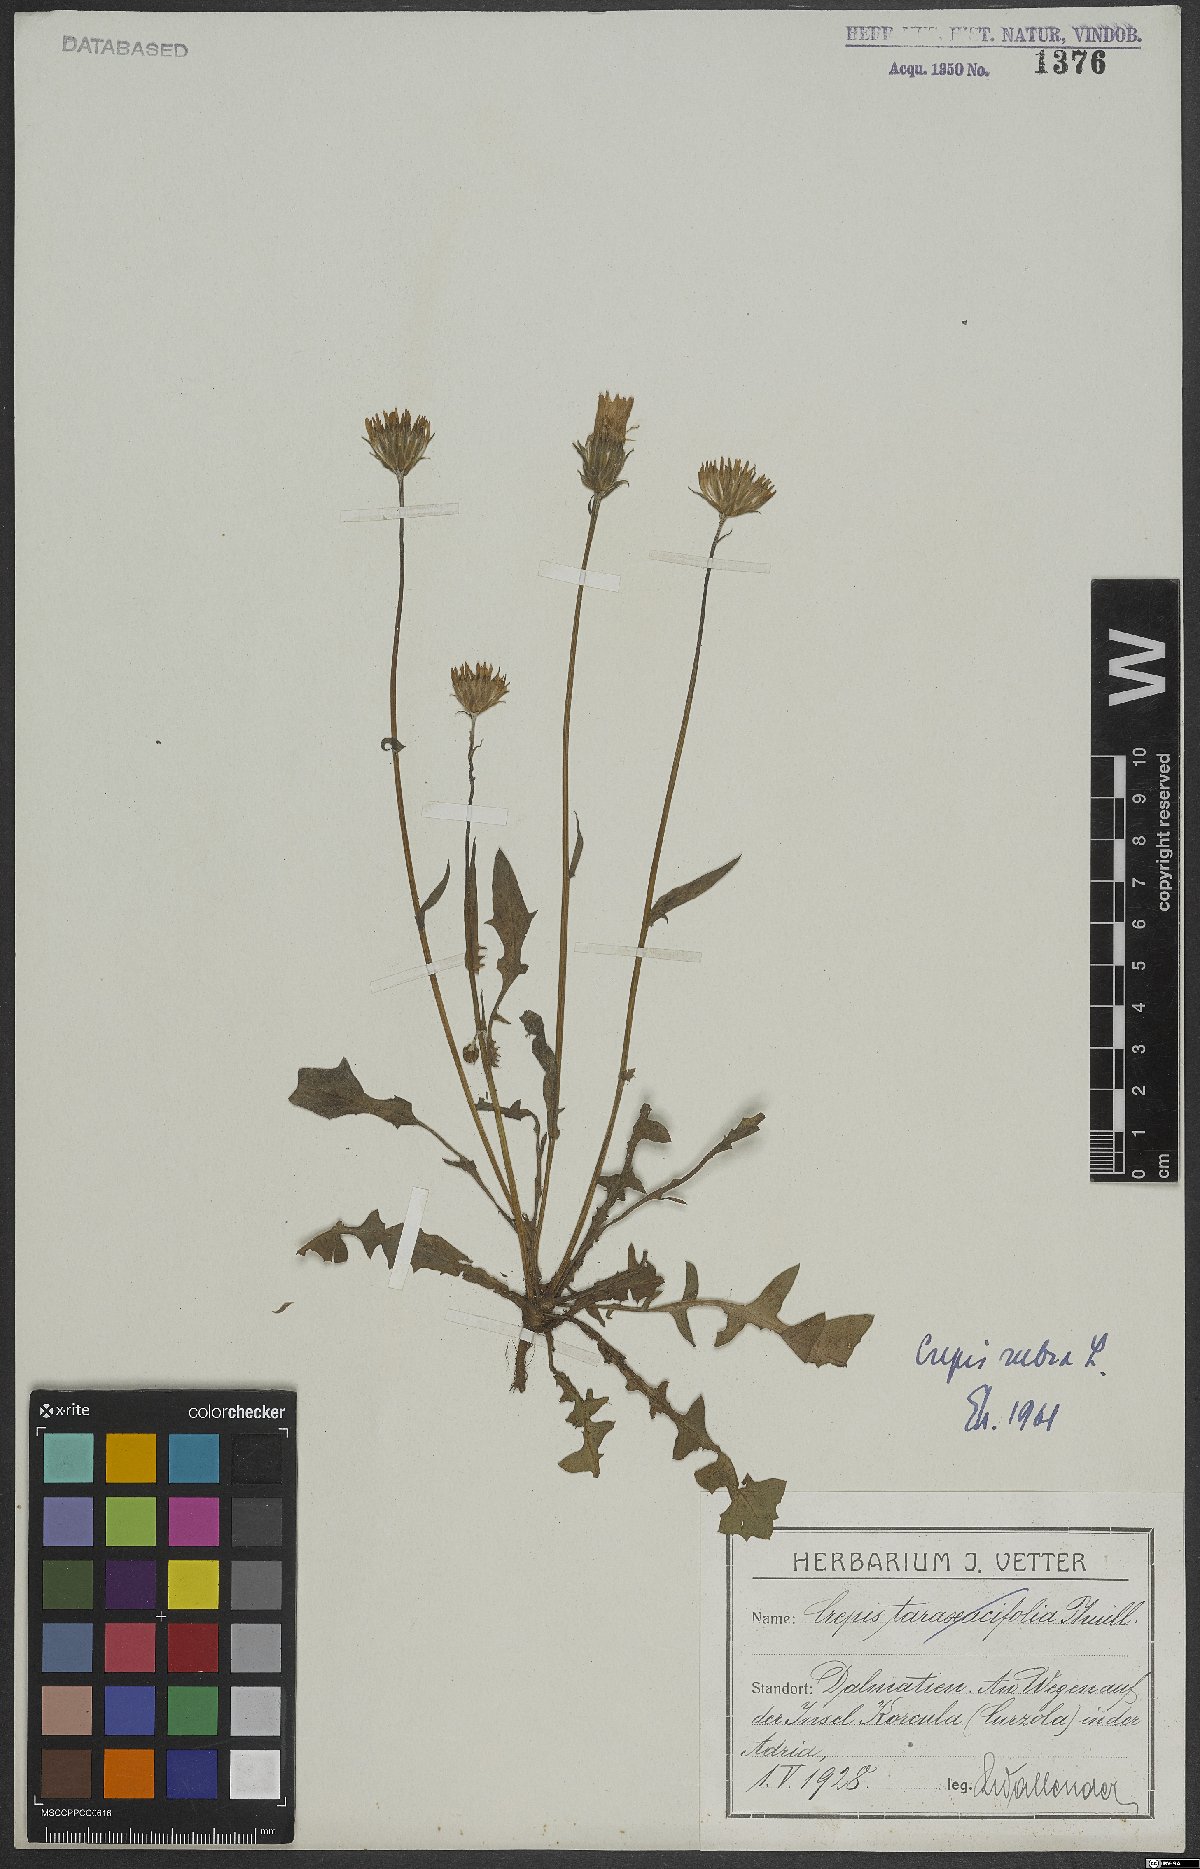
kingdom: Plantae
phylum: Tracheophyta
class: Magnoliopsida
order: Asterales
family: Asteraceae
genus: Crepis
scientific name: Crepis rubra
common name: Pink hawk's-beard
